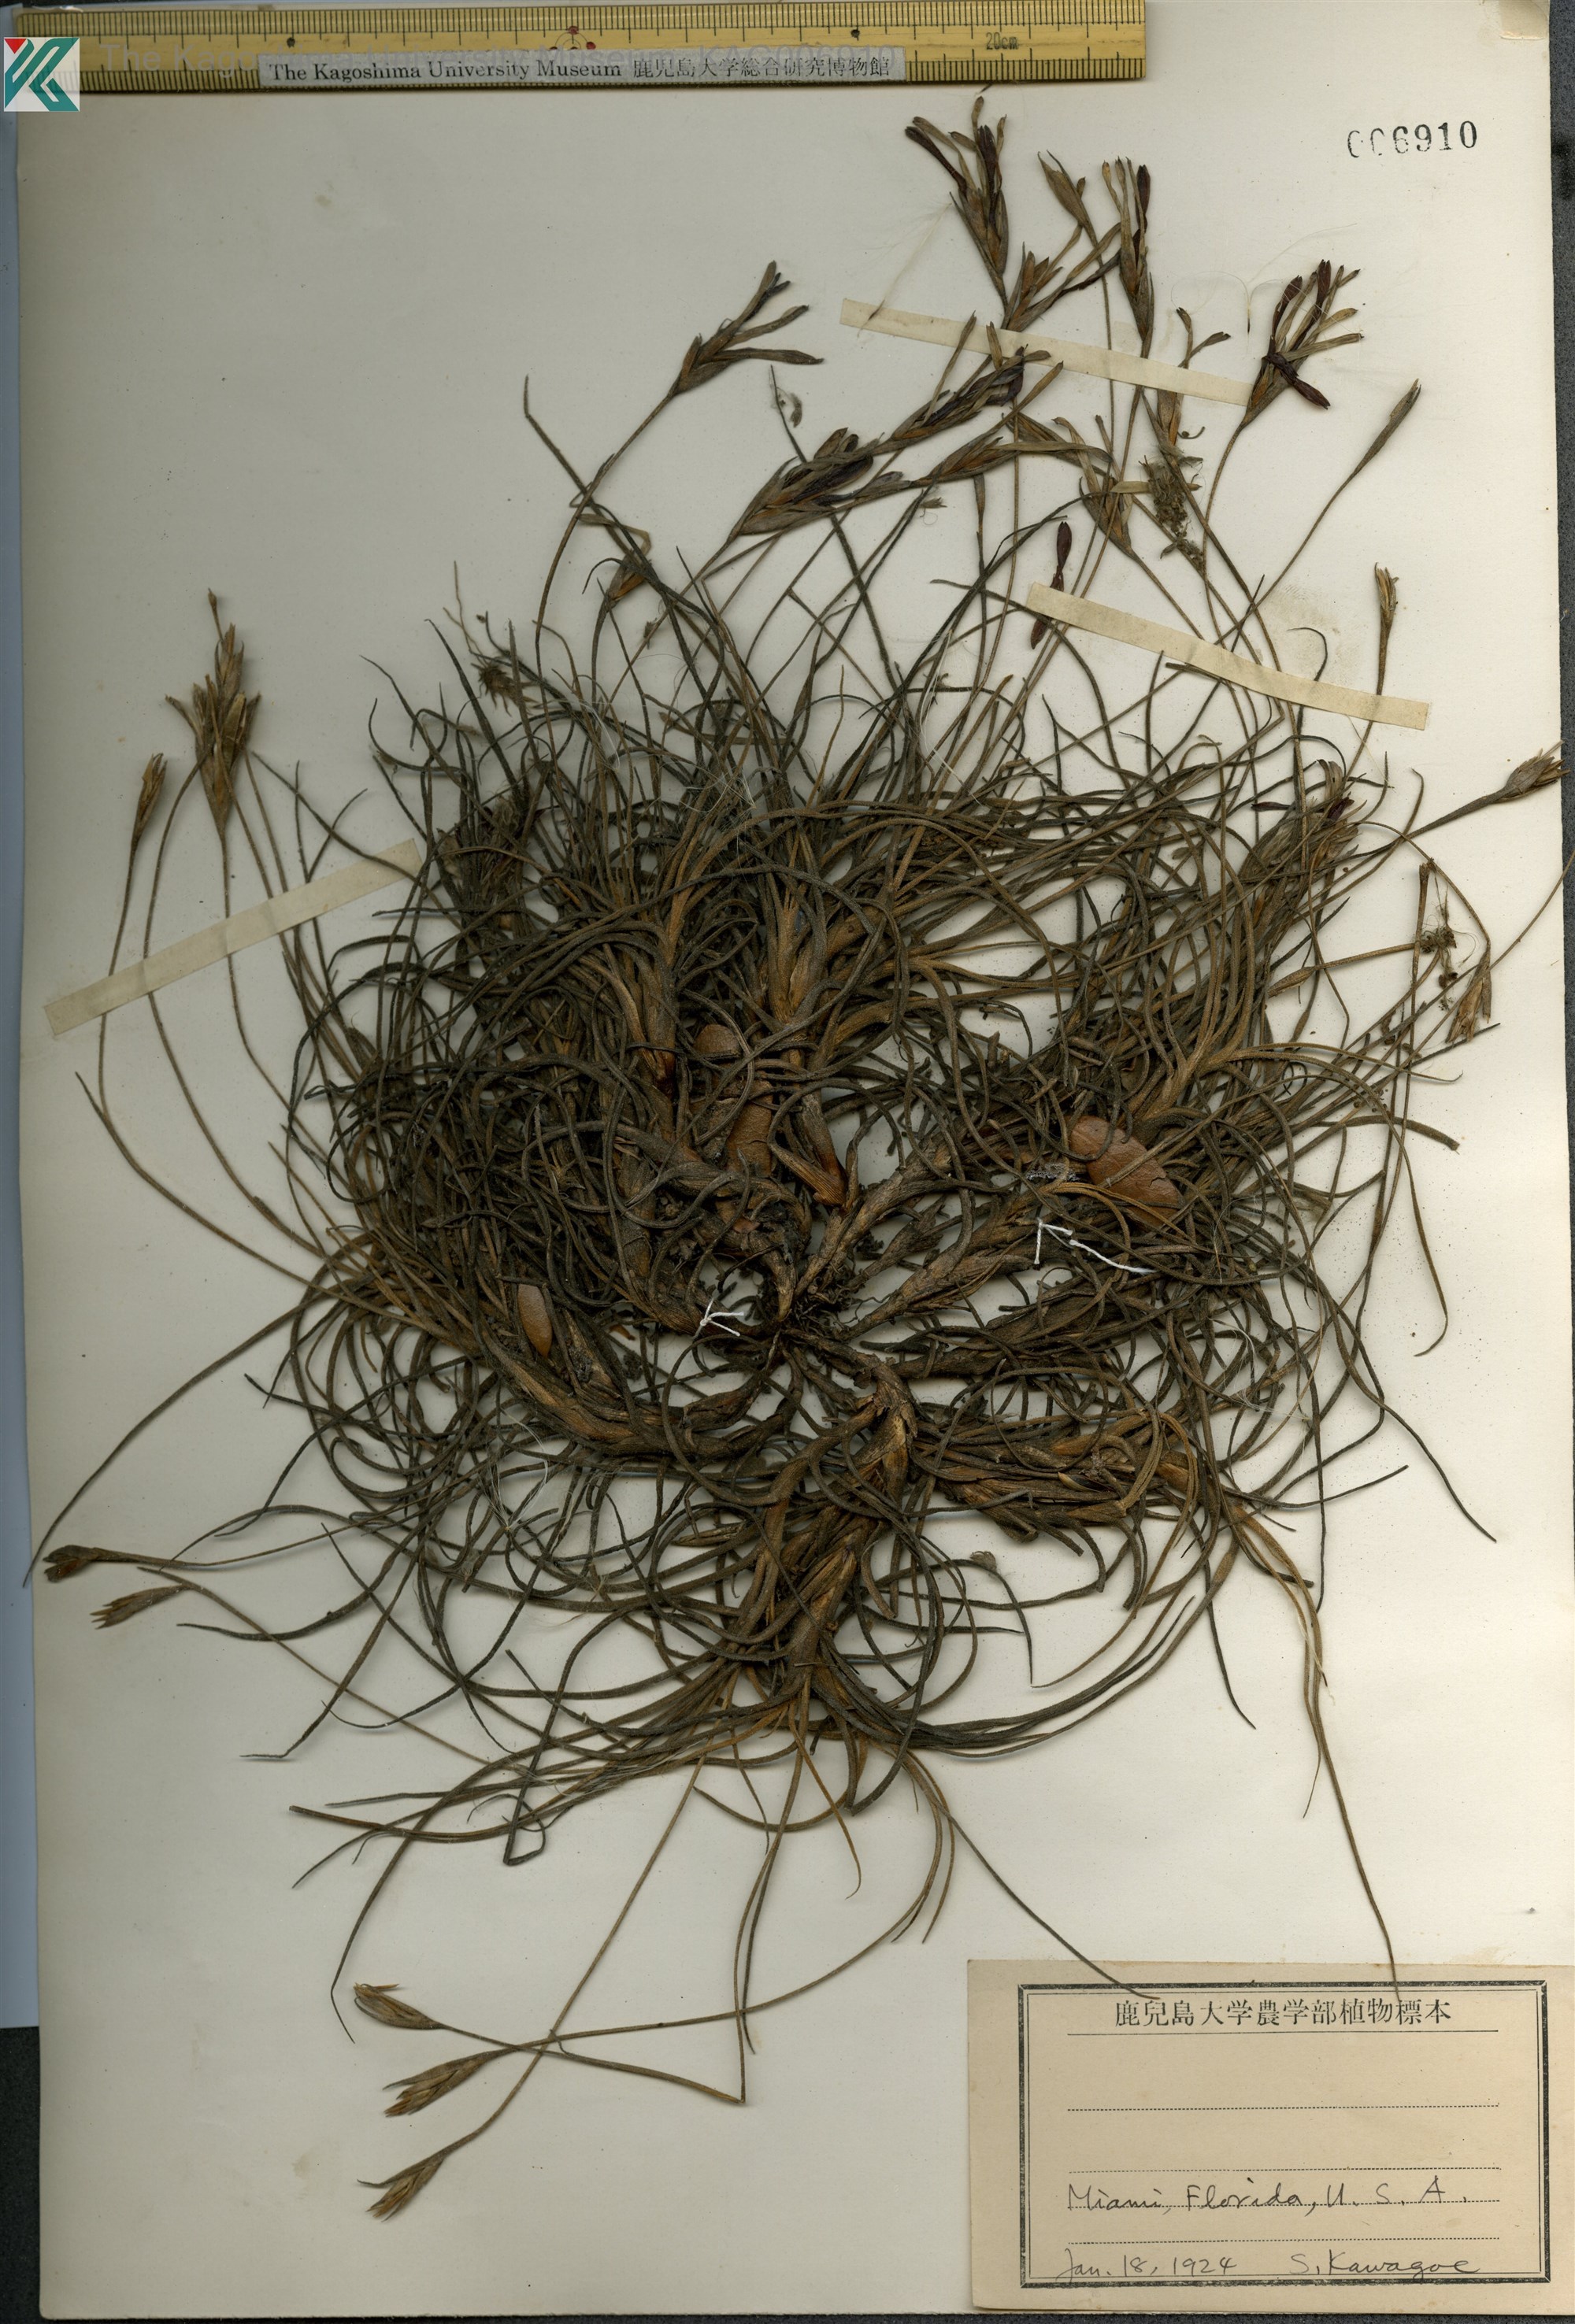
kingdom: Plantae
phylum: Tracheophyta
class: Liliopsida
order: Poales
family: Bromeliaceae
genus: Vriesia
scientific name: Vriesia
